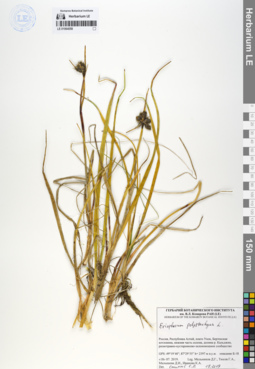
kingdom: Plantae
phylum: Tracheophyta
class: Liliopsida
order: Poales
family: Cyperaceae
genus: Eriophorum
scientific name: Eriophorum angustifolium
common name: Common cottongrass
